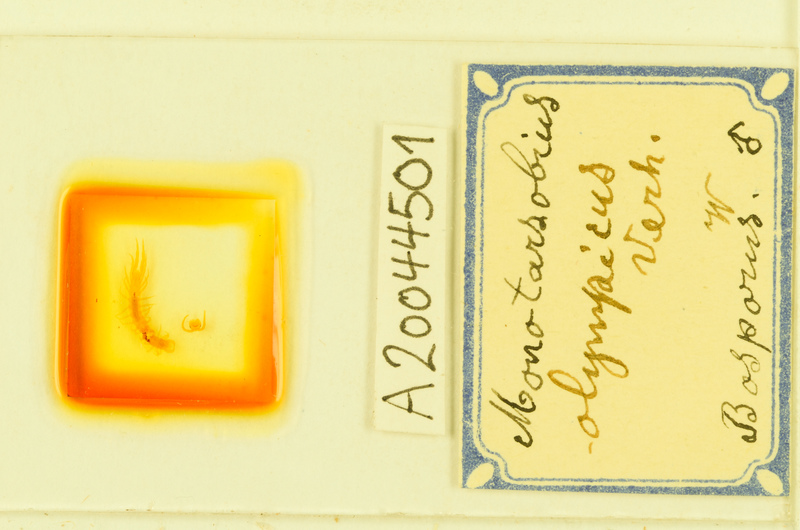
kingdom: Animalia
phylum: Arthropoda
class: Chilopoda
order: Lithobiomorpha
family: Lithobiidae
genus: Monotarsobius
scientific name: Monotarsobius
